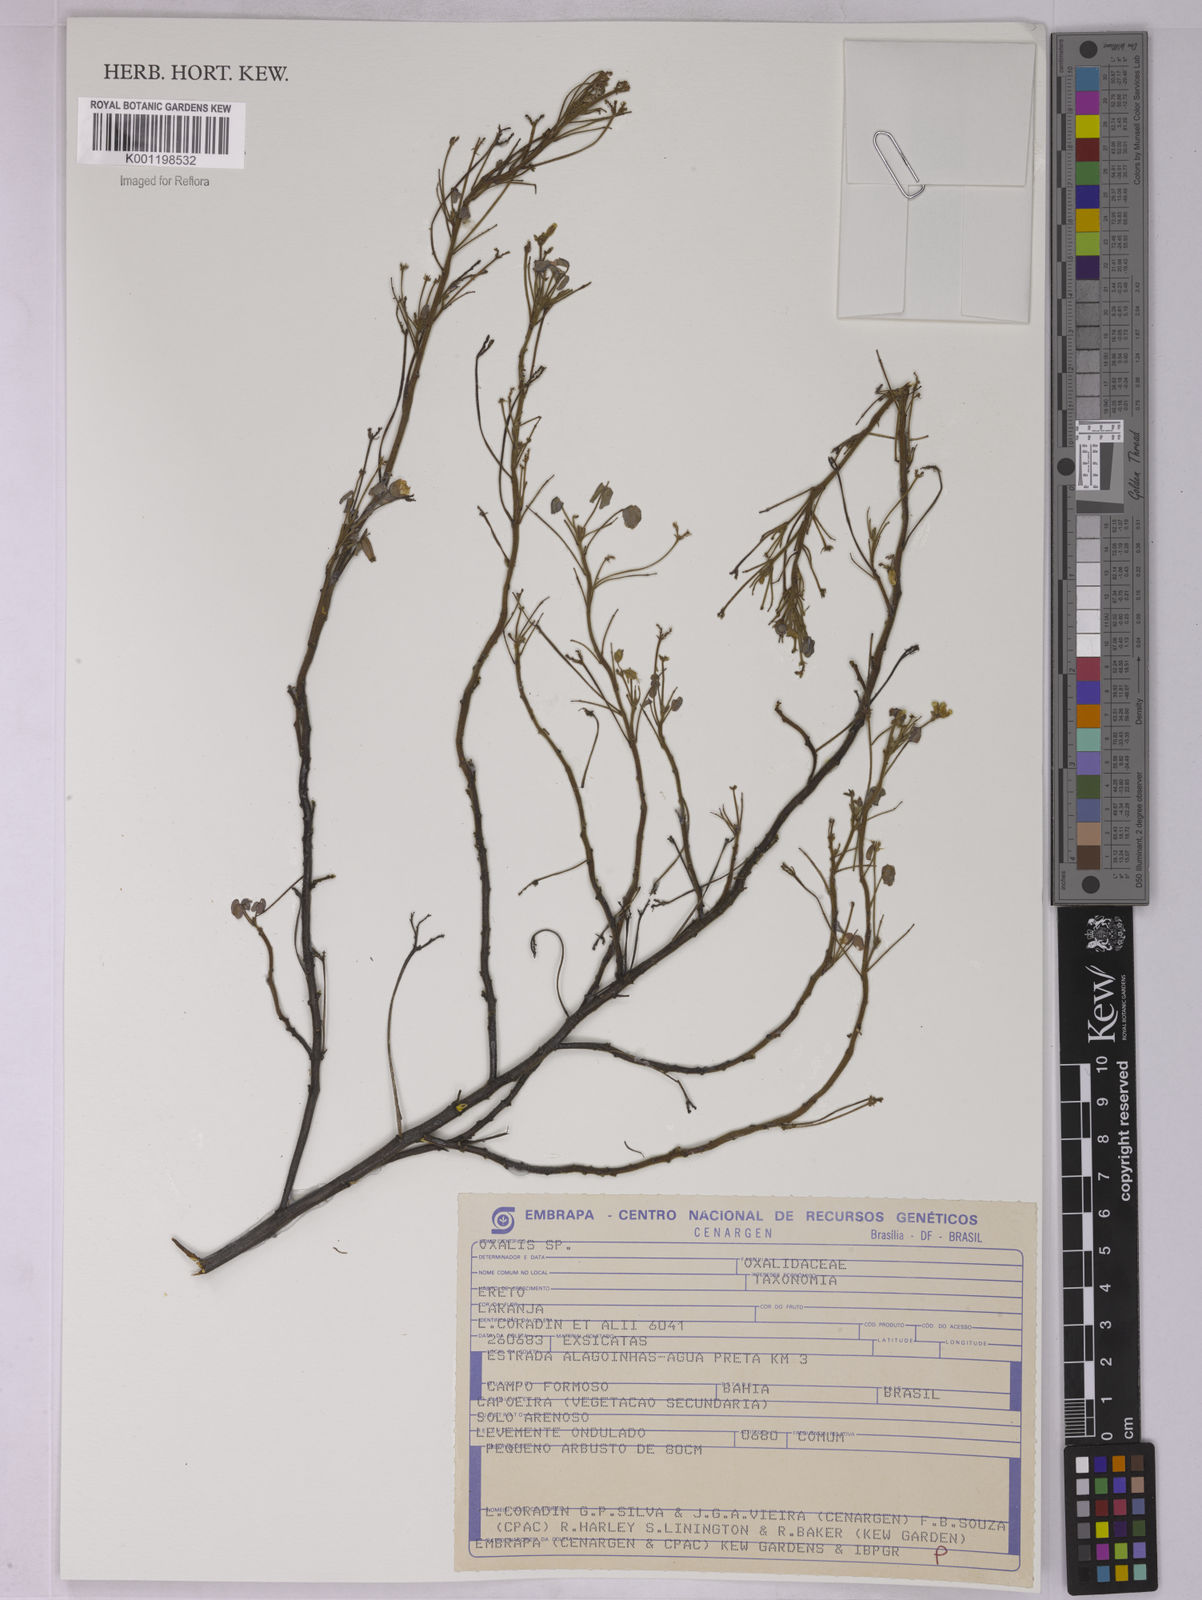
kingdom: Plantae
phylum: Tracheophyta
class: Magnoliopsida
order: Oxalidales
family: Oxalidaceae
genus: Oxalis
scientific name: Oxalis
